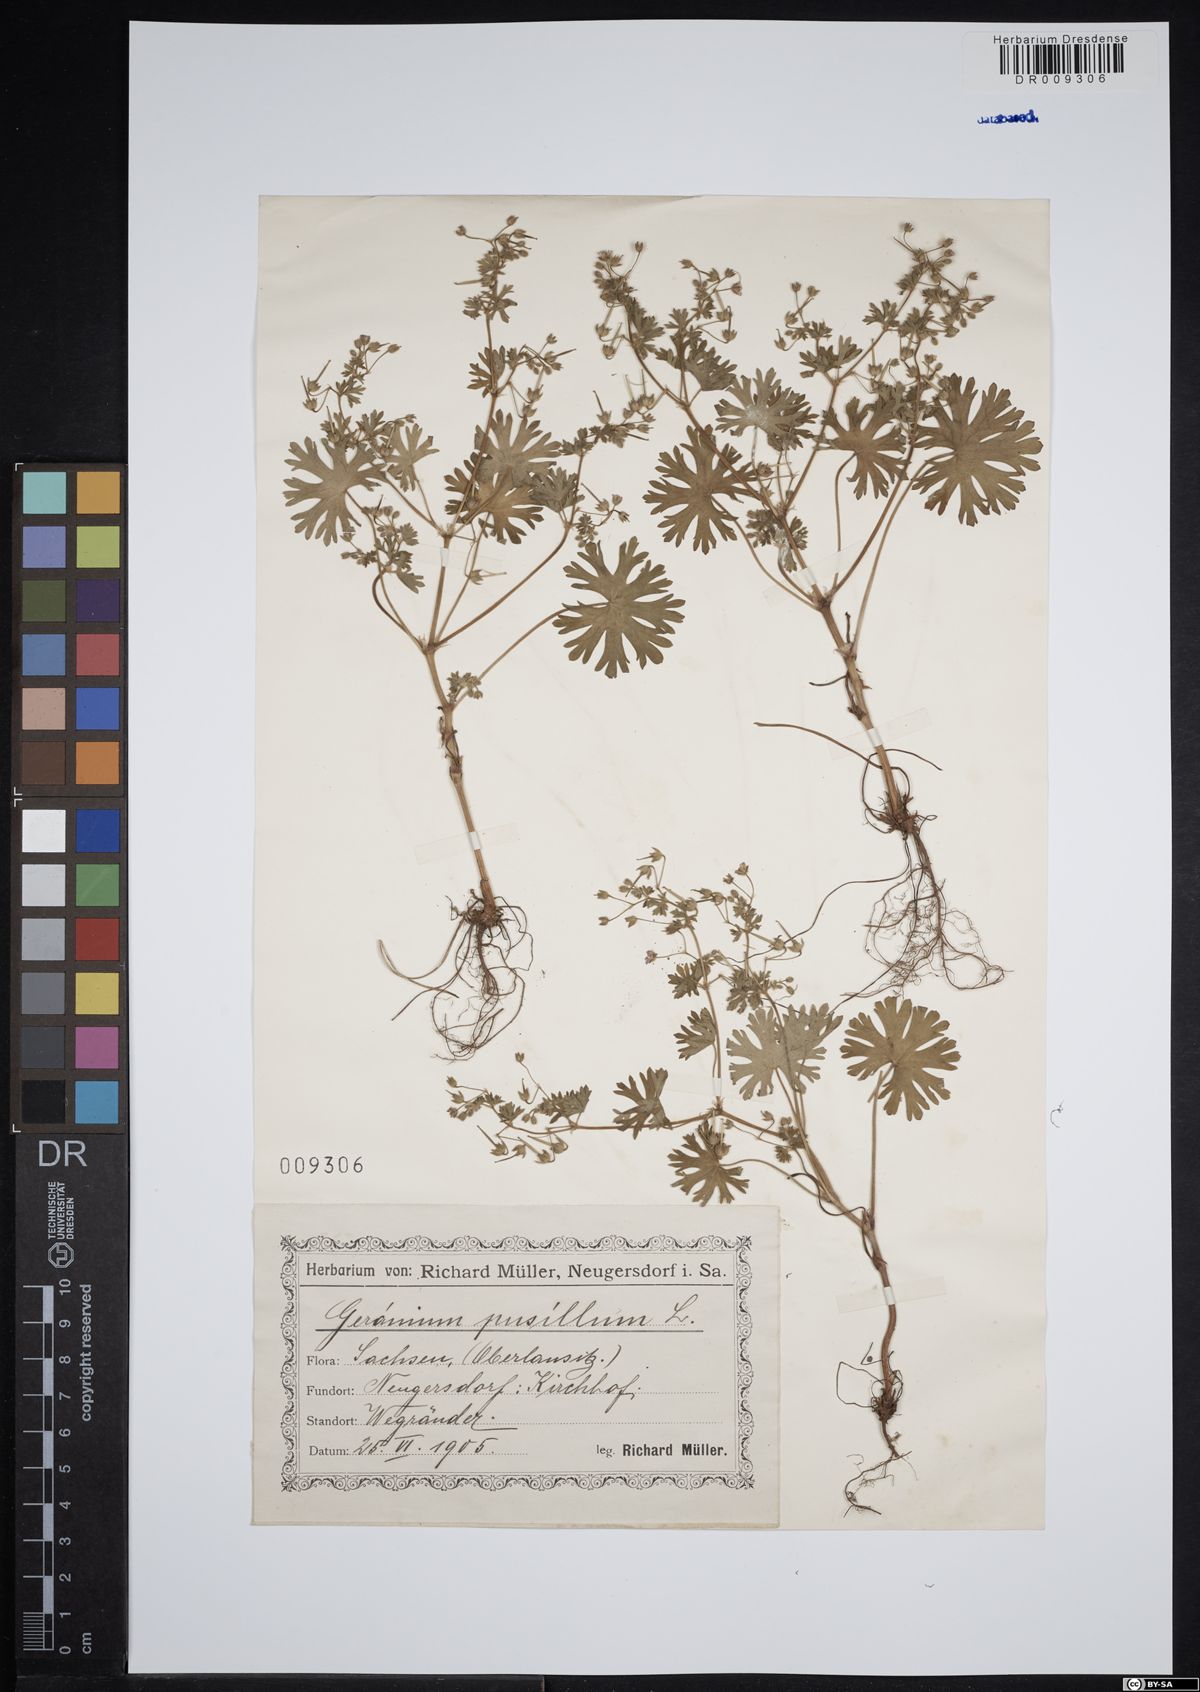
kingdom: Plantae
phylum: Tracheophyta
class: Magnoliopsida
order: Geraniales
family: Geraniaceae
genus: Geranium
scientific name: Geranium pusillum
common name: Small geranium
